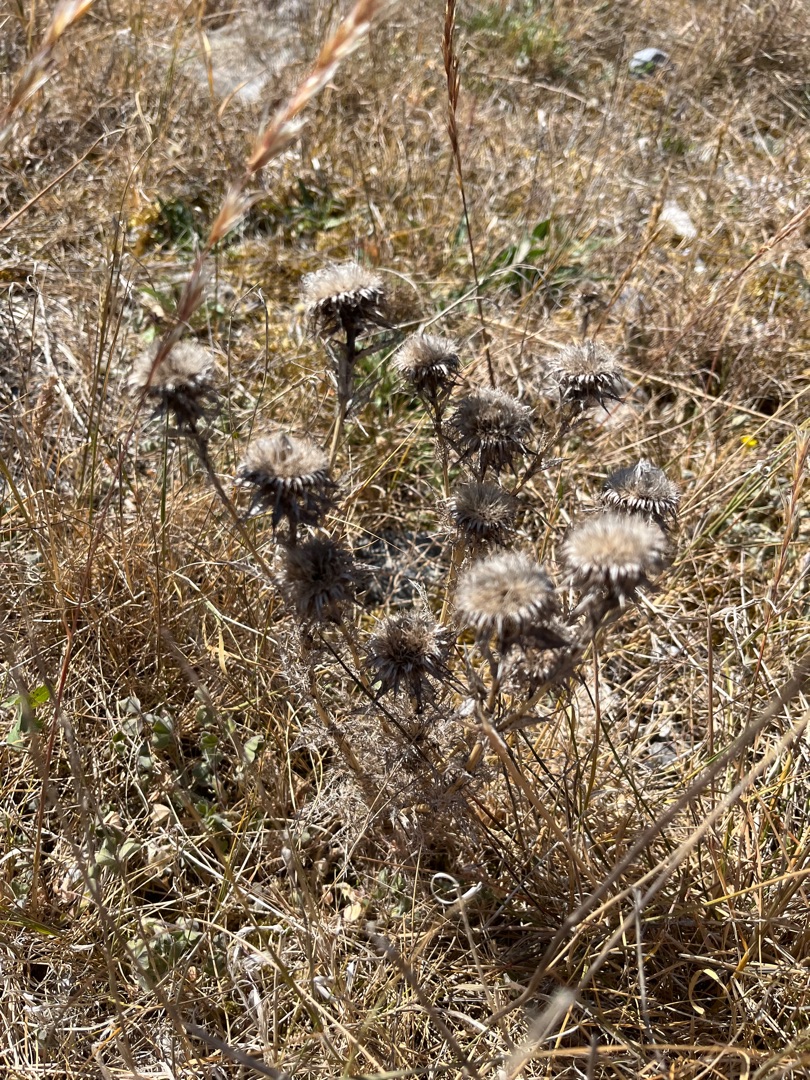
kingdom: Plantae
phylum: Tracheophyta
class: Magnoliopsida
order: Asterales
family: Asteraceae
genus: Carlina
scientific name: Carlina vulgaris
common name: Bakketidsel
